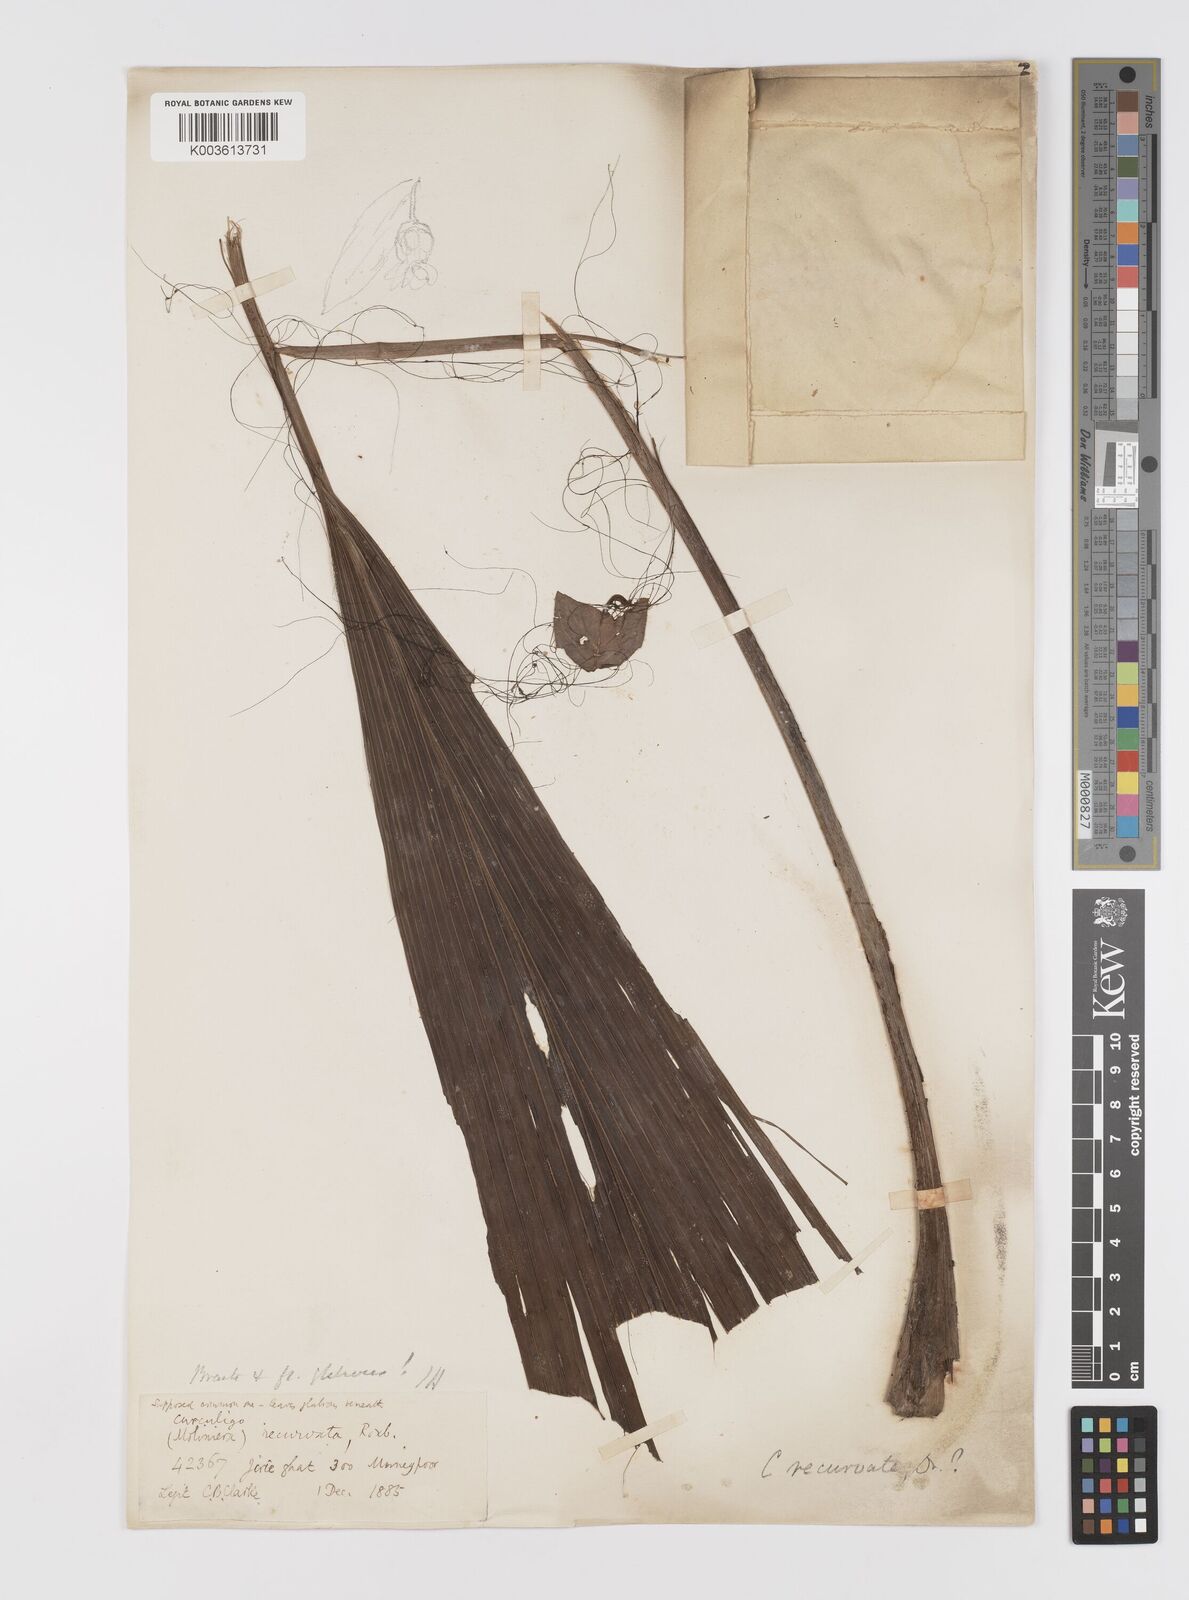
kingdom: Plantae
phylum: Tracheophyta
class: Liliopsida
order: Asparagales
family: Hypoxidaceae
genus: Curculigo
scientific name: Curculigo capitulata
